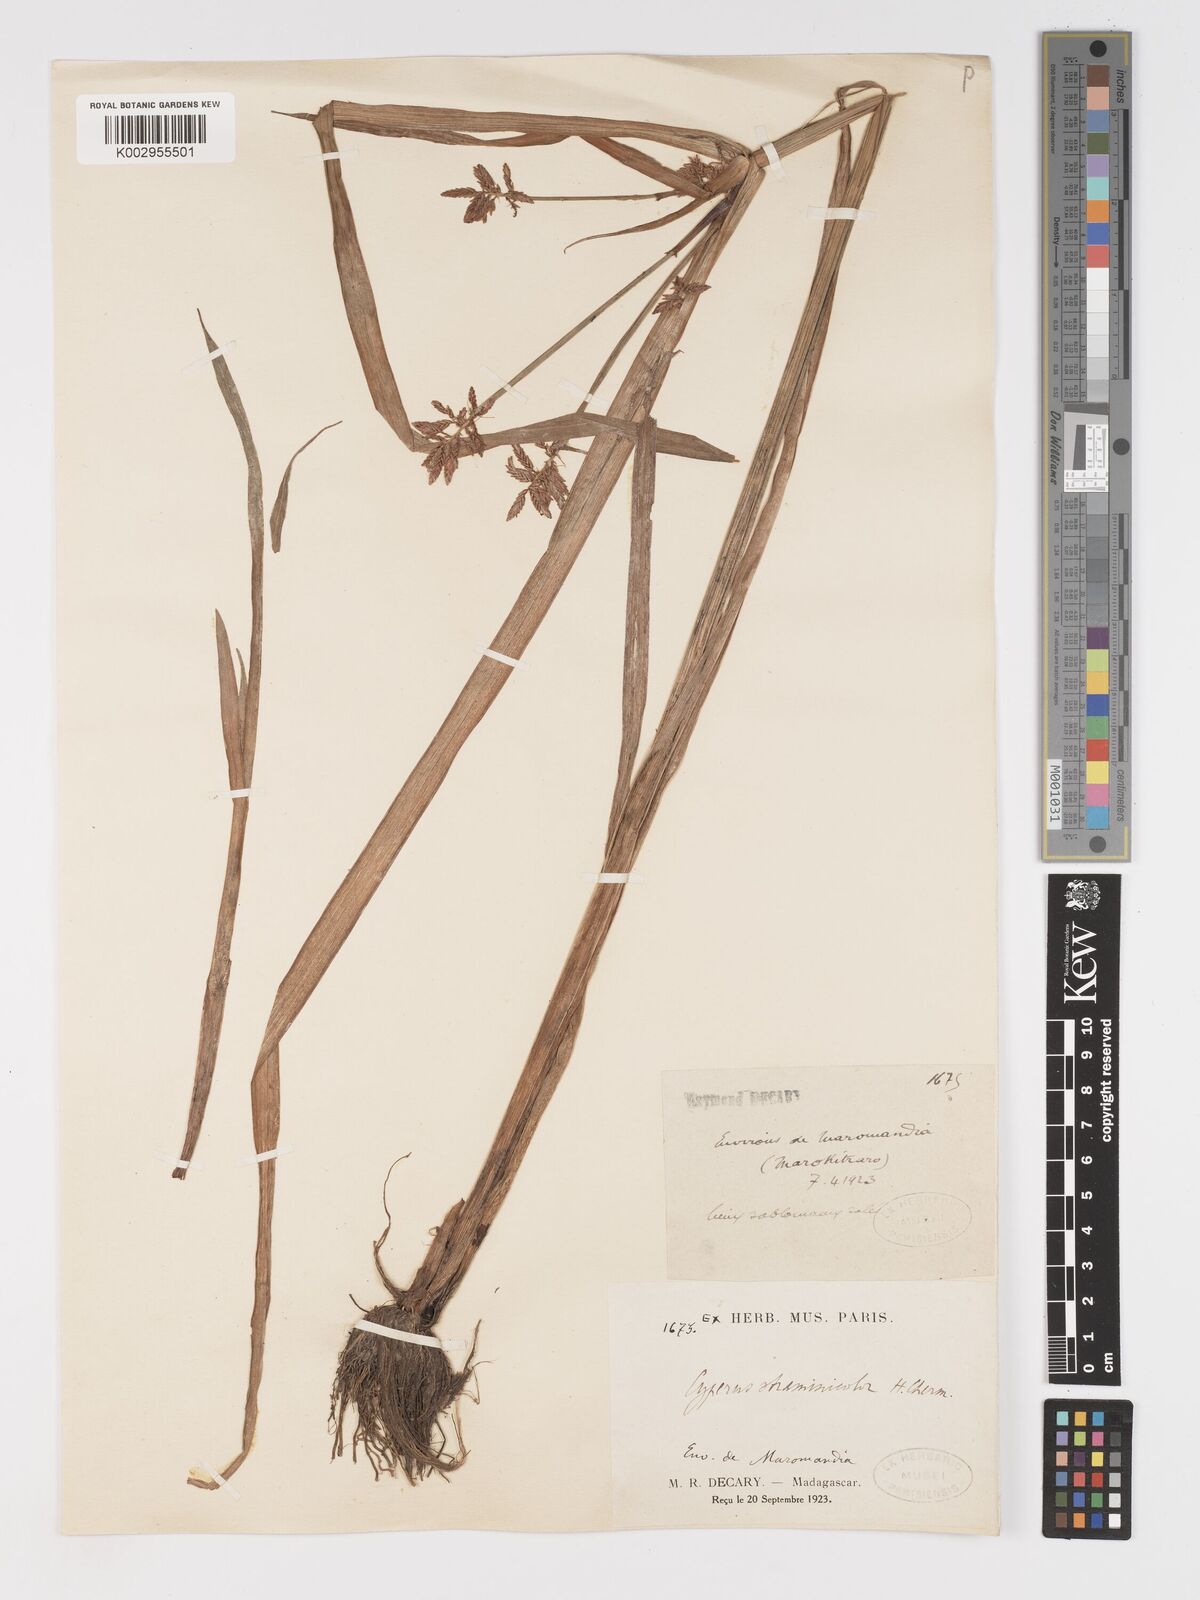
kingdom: Plantae
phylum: Tracheophyta
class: Liliopsida
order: Poales
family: Cyperaceae
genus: Cyperus
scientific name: Cyperus incompressus
